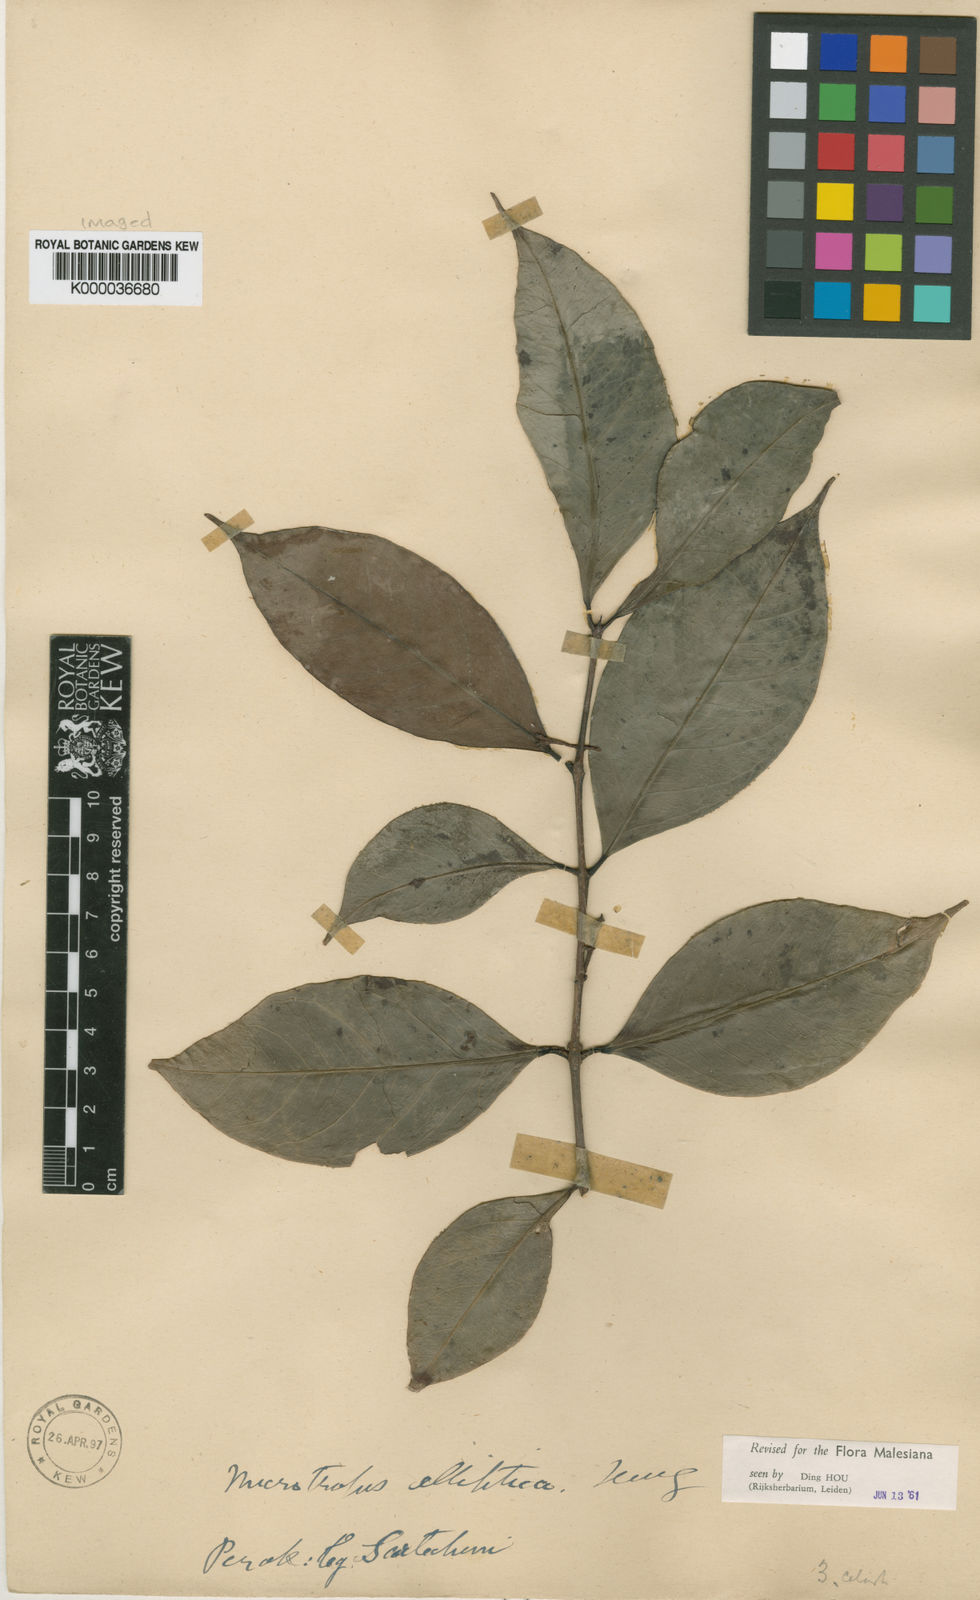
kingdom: Plantae
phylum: Tracheophyta
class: Magnoliopsida
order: Celastrales
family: Celastraceae
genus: Microtropis
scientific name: Microtropis elliptica
